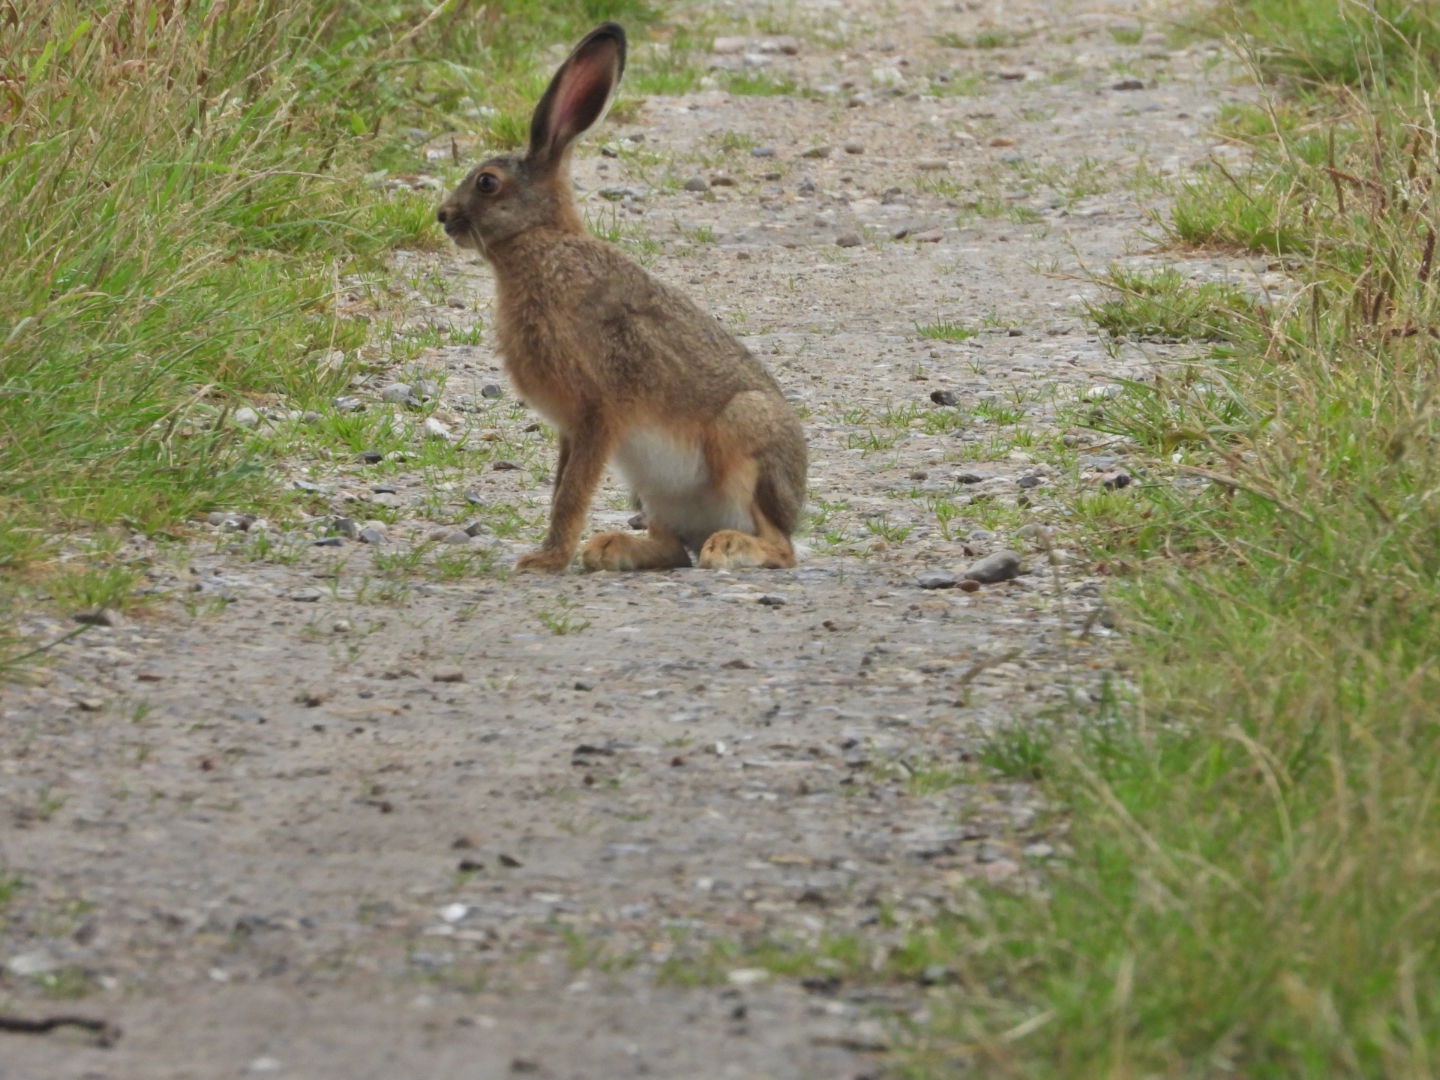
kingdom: Animalia
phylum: Chordata
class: Mammalia
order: Lagomorpha
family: Leporidae
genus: Lepus
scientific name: Lepus europaeus
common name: Hare
